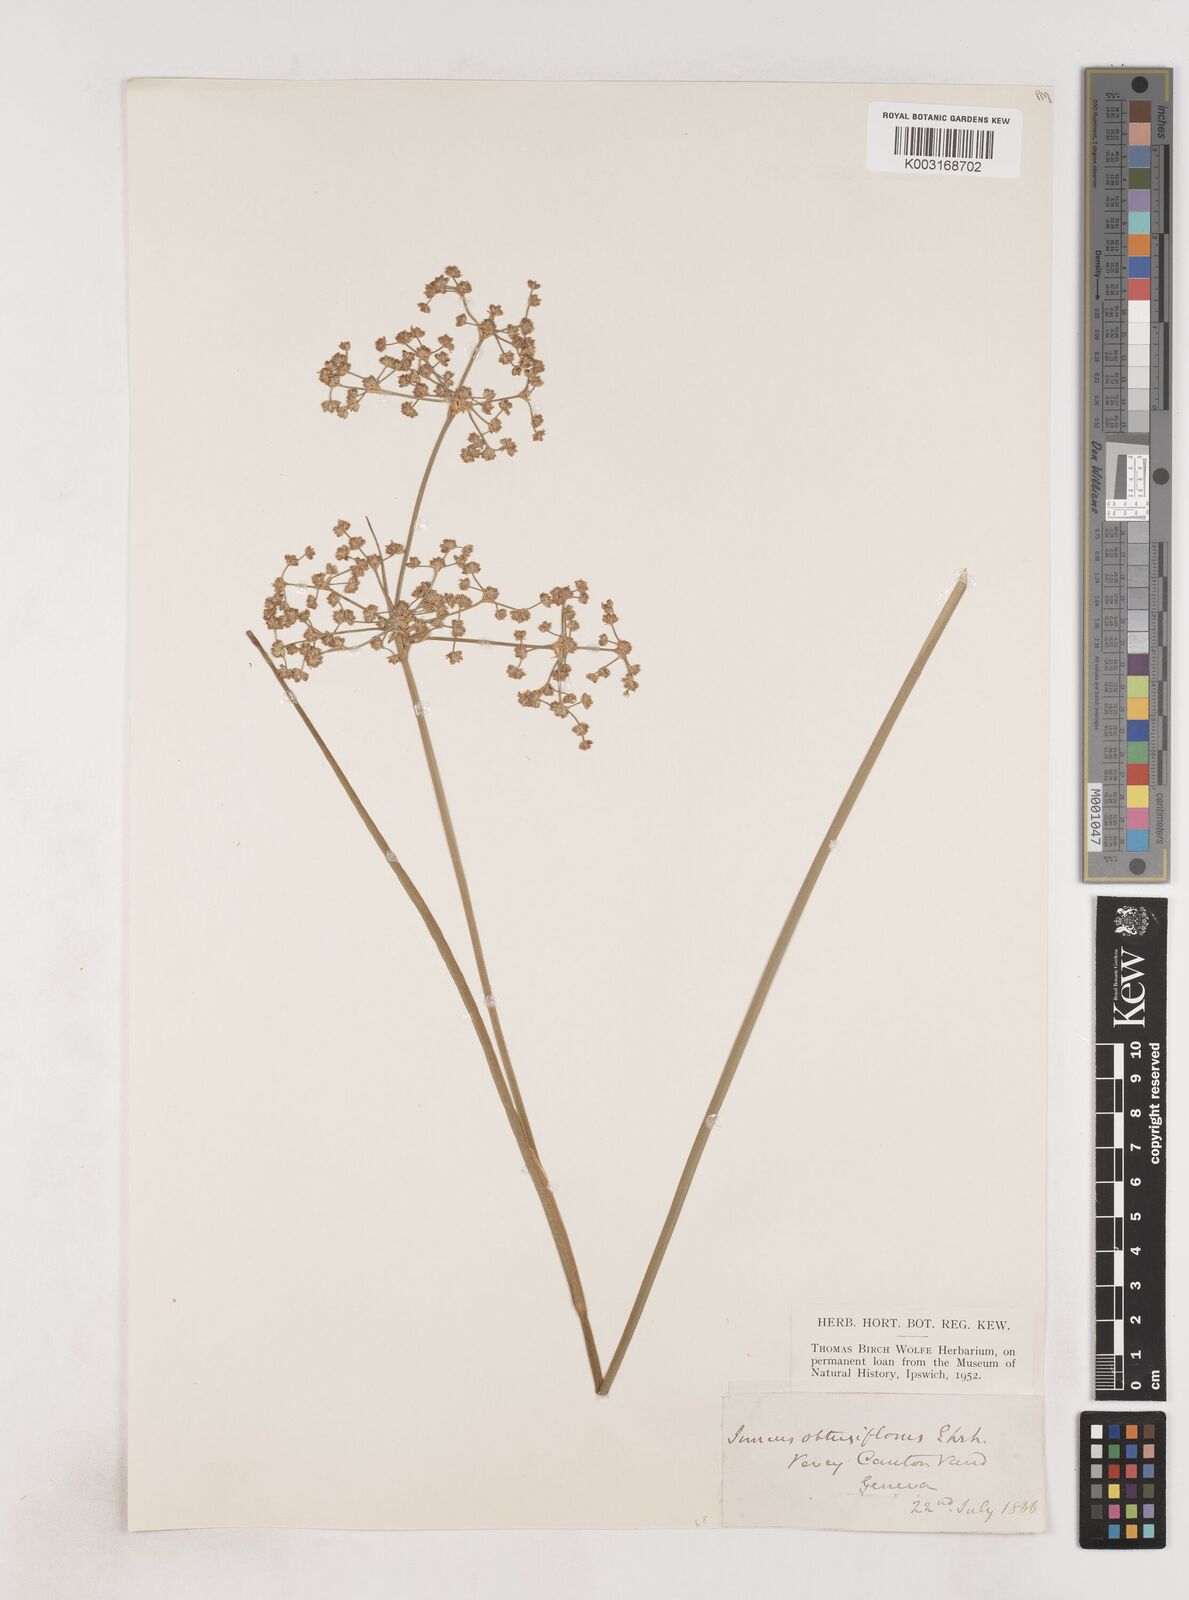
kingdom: Plantae
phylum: Tracheophyta
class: Liliopsida
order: Poales
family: Juncaceae
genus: Juncus
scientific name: Juncus subnodulosus
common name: Blunt-flowered rush
